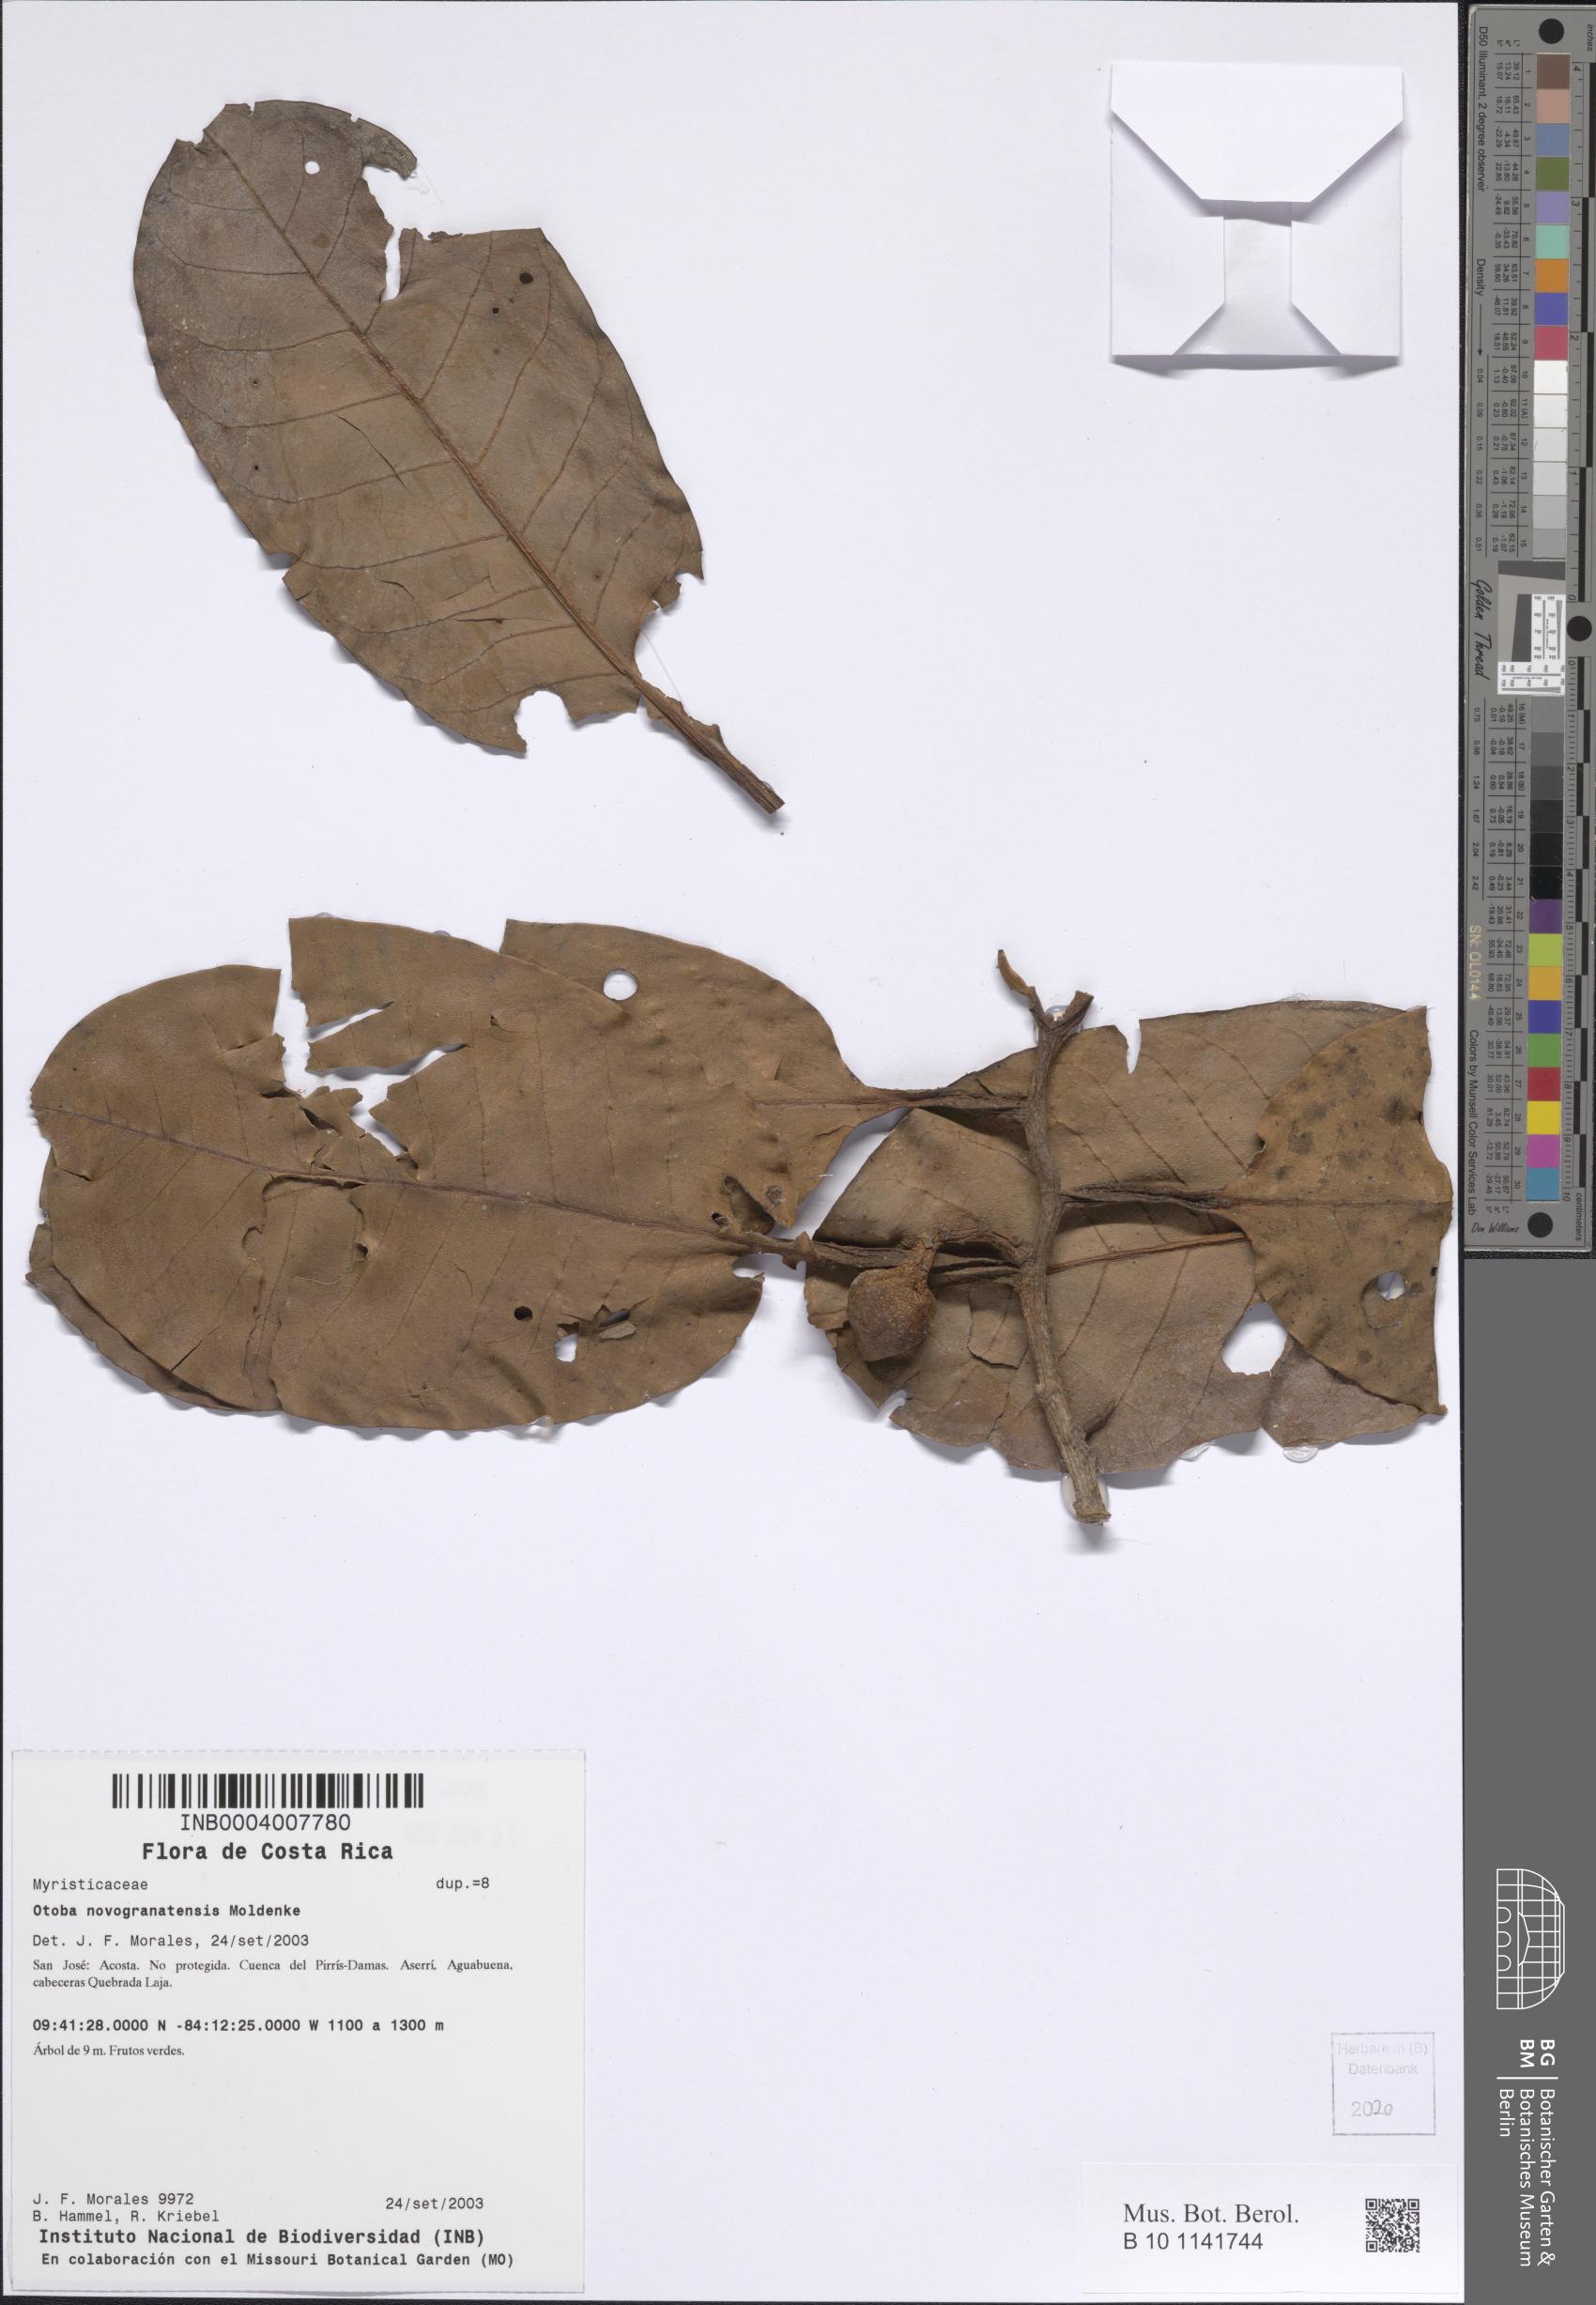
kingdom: Plantae
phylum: Tracheophyta
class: Magnoliopsida
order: Magnoliales
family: Myristicaceae
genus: Otoba
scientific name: Otoba novogranatensis
